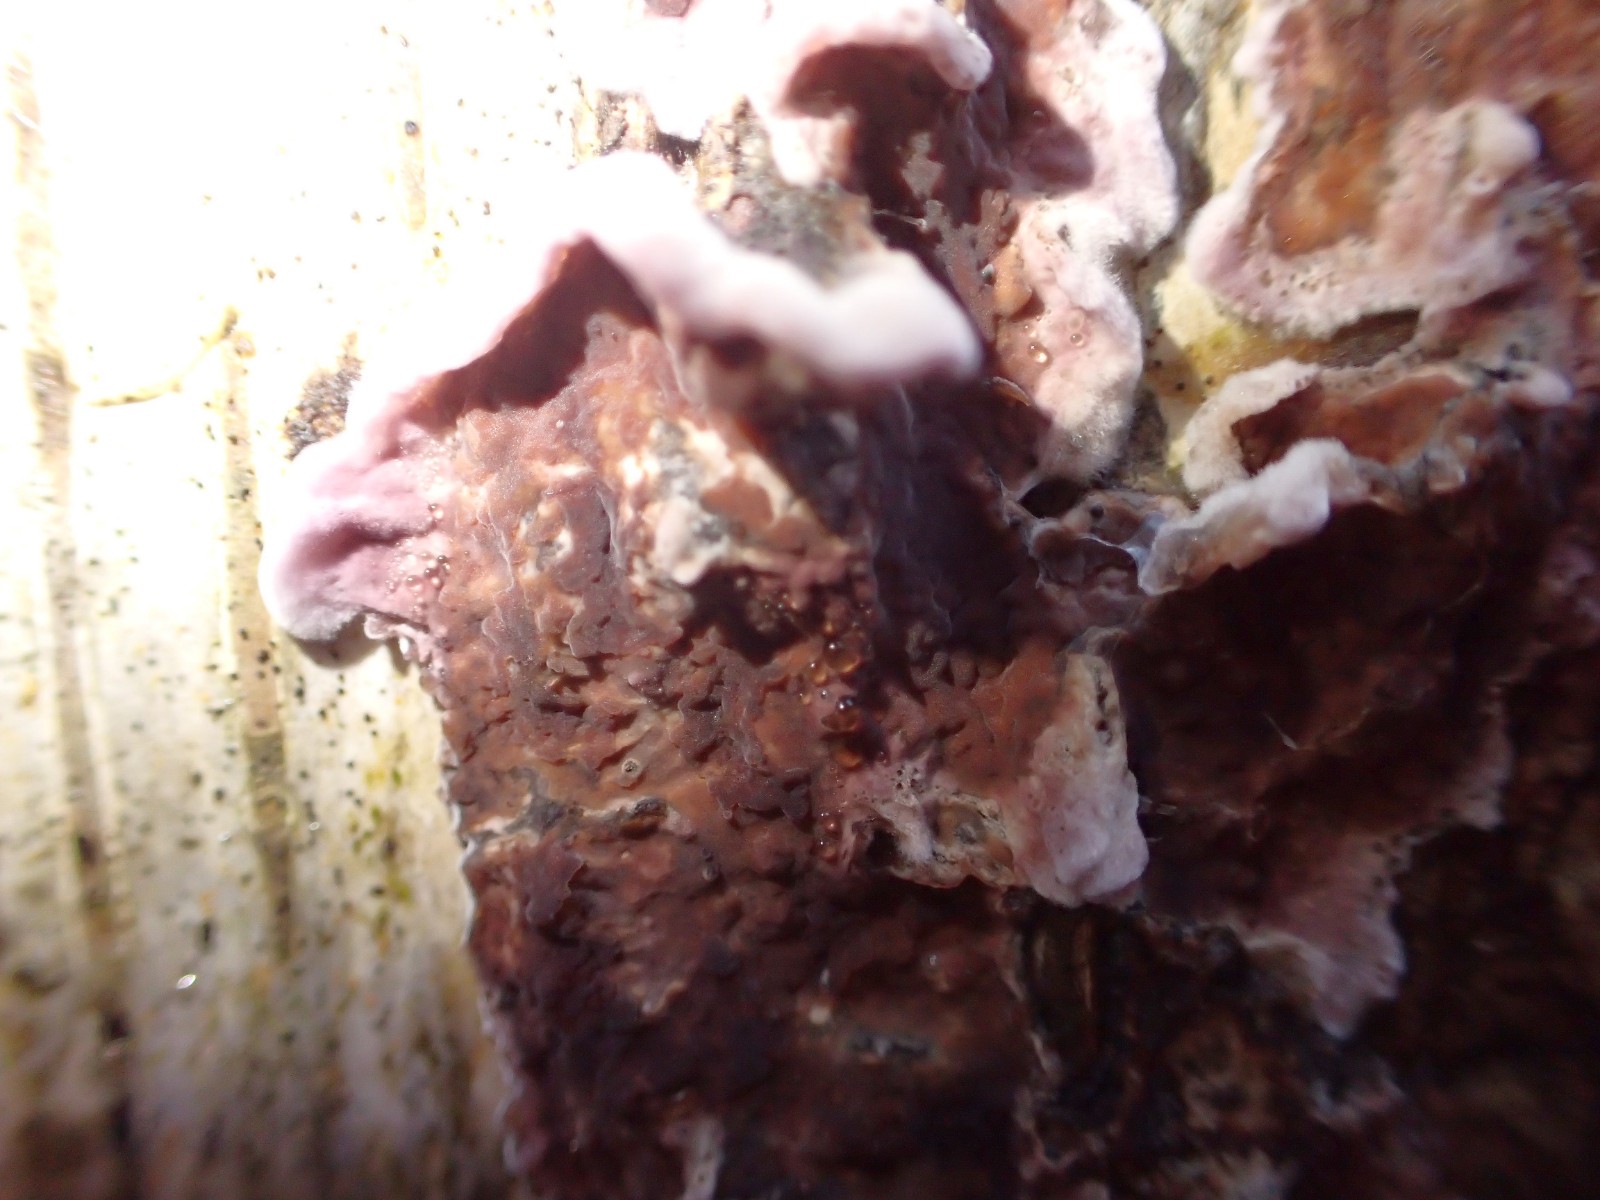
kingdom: Fungi
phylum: Basidiomycota
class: Agaricomycetes
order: Agaricales
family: Cyphellaceae
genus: Chondrostereum
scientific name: Chondrostereum purpureum
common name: purpurlædersvamp
